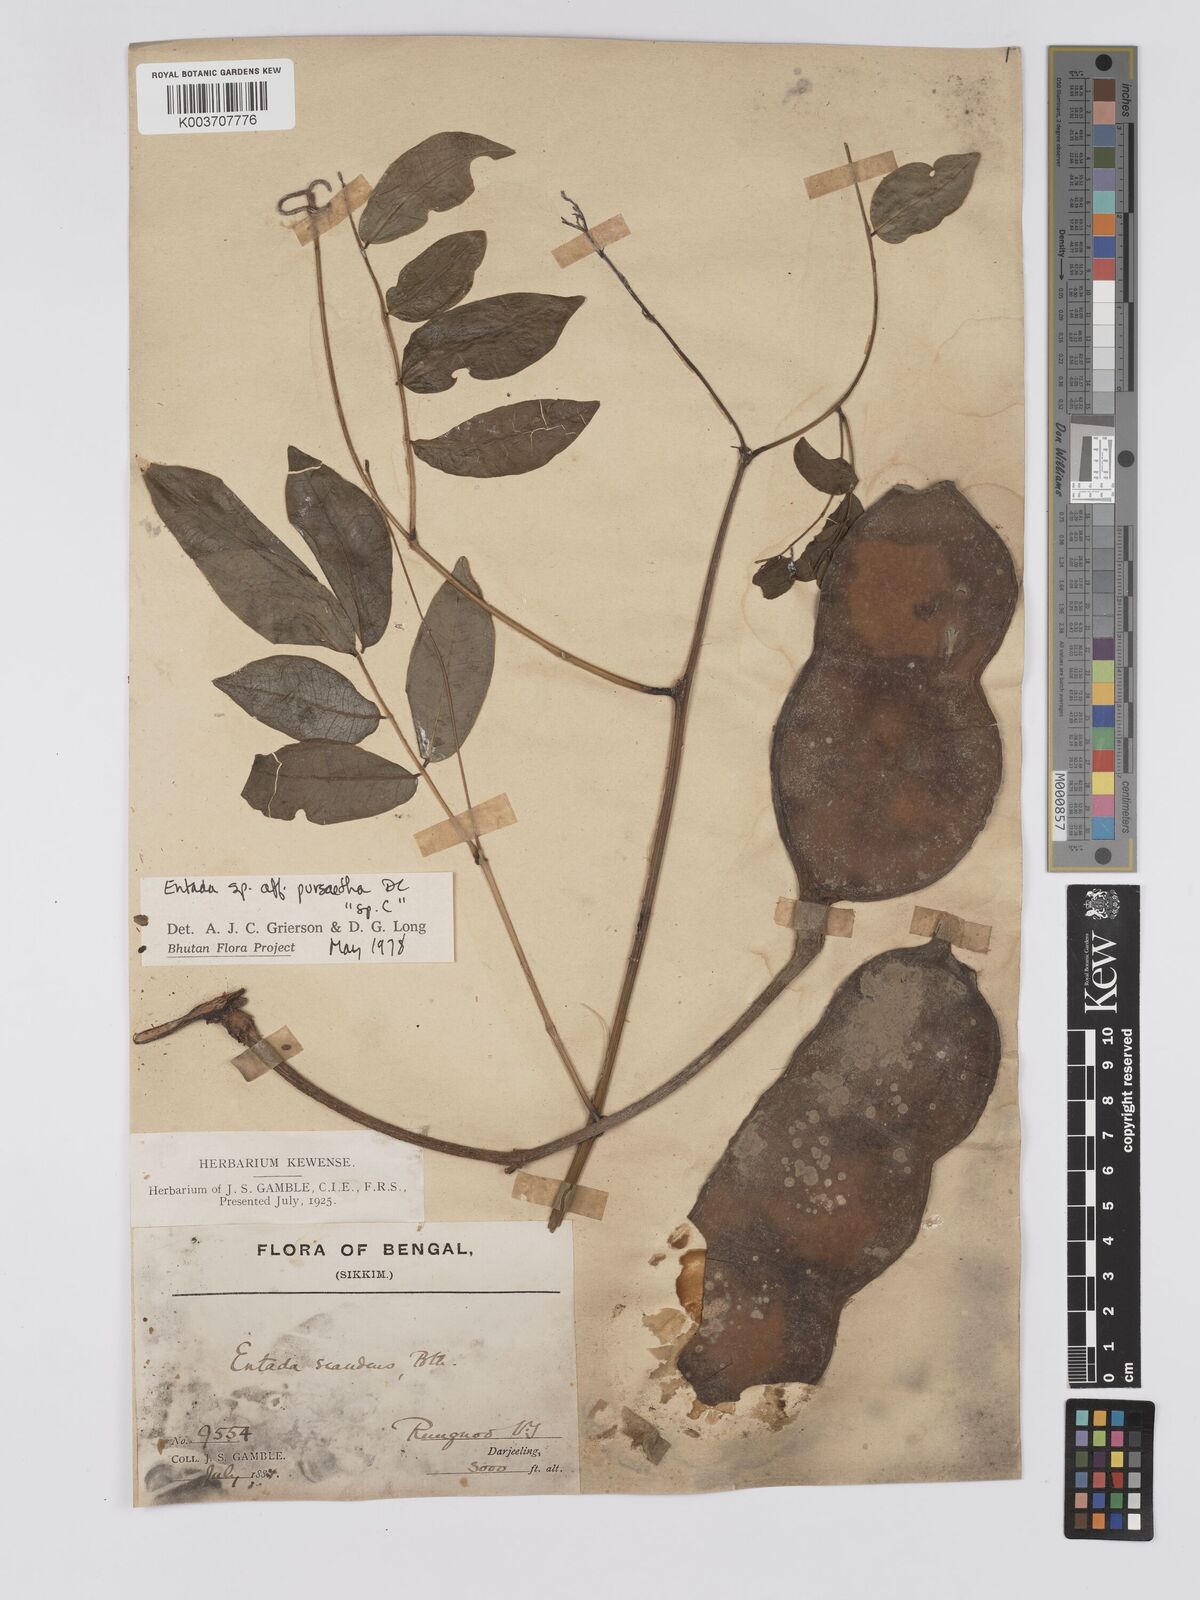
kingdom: Plantae
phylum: Tracheophyta
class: Magnoliopsida
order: Fabales
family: Fabaceae
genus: Entada
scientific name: Entada
